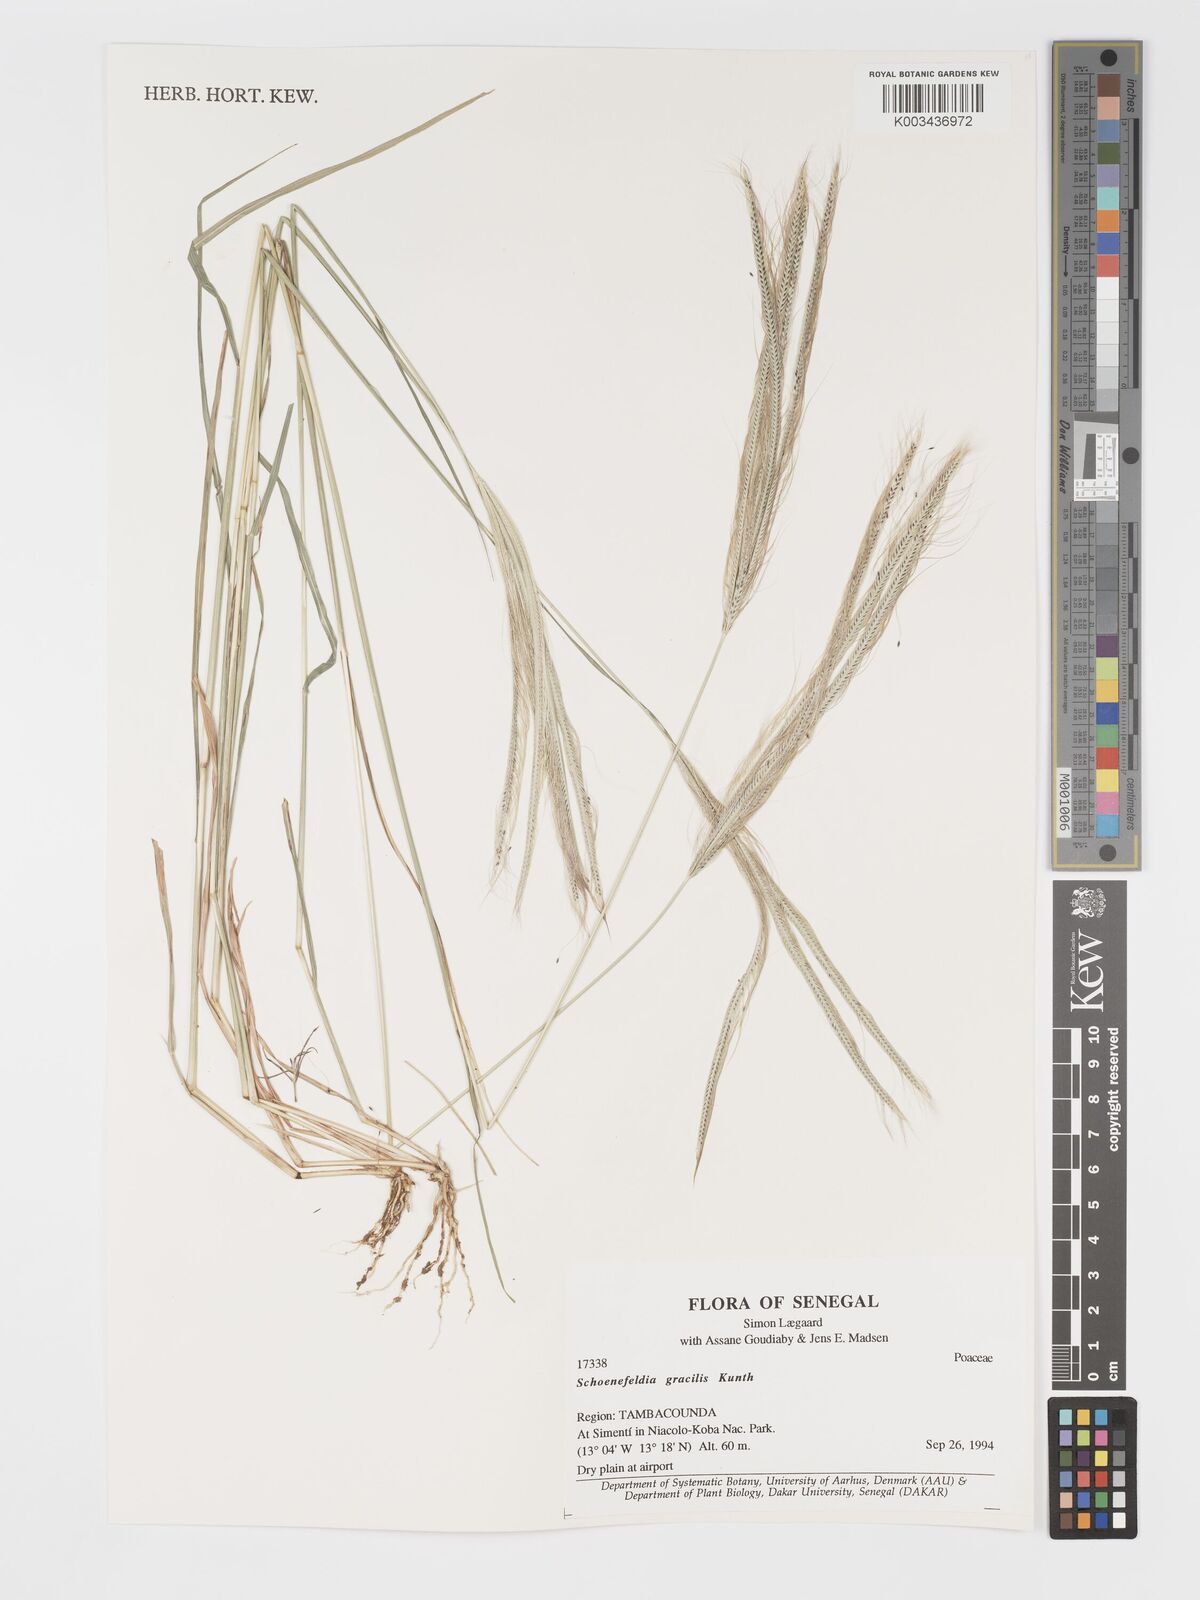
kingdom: Plantae
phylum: Tracheophyta
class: Liliopsida
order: Poales
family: Poaceae
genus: Schoenefeldia
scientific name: Schoenefeldia gracilis
